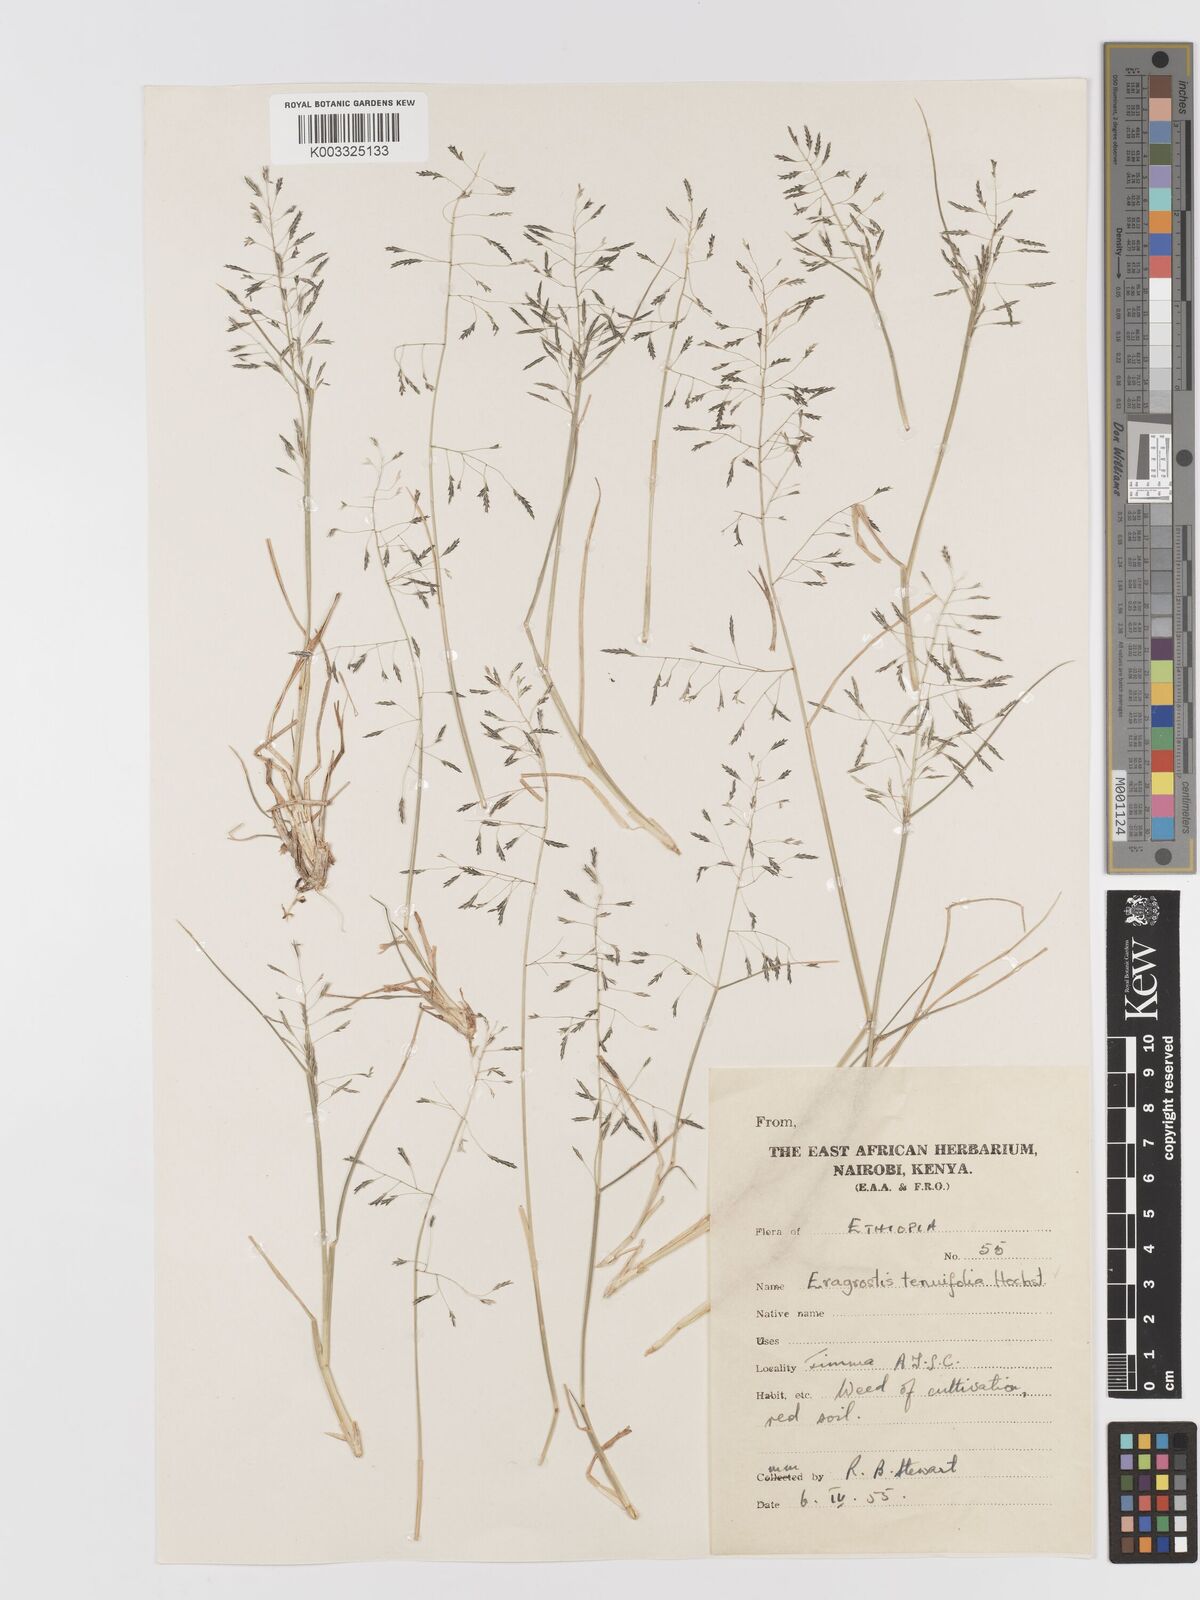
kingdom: Plantae
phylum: Tracheophyta
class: Liliopsida
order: Poales
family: Poaceae
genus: Eragrostis
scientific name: Eragrostis tenuifolia
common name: Elastic grass
